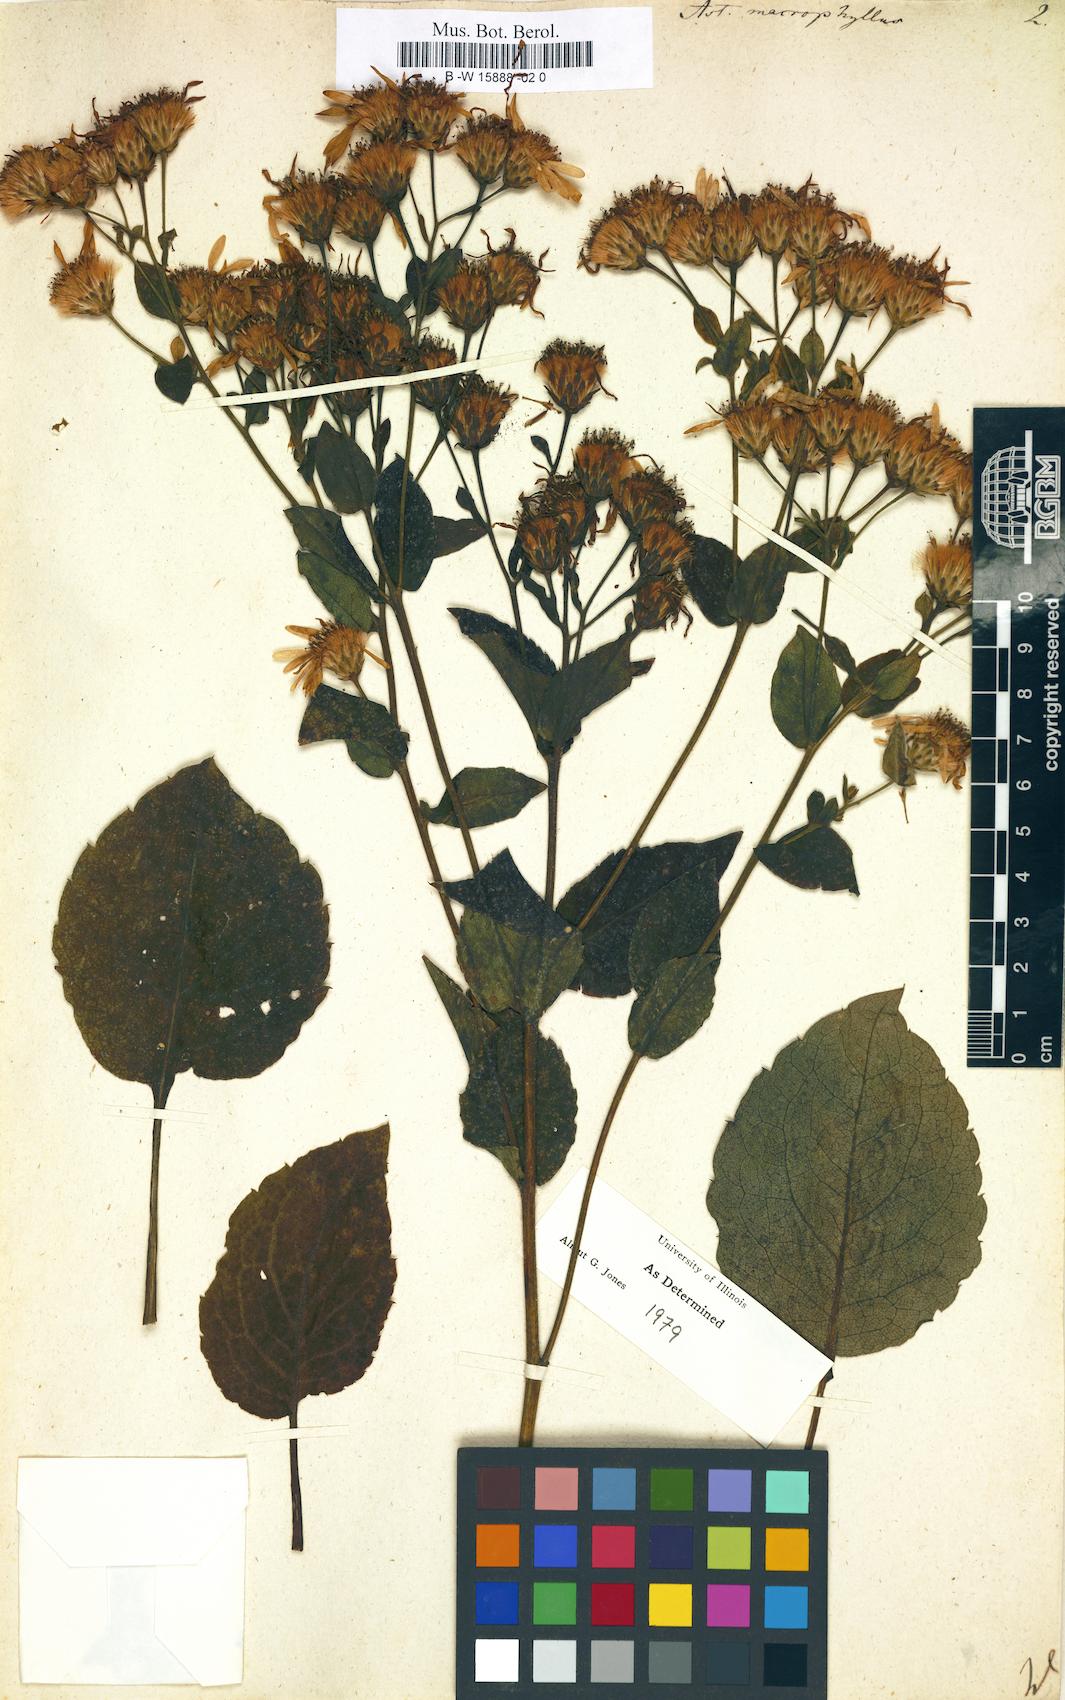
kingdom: Plantae
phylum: Tracheophyta
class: Magnoliopsida
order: Asterales
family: Asteraceae
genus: Eurybia
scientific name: Eurybia macrophylla
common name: Big-leaved aster
